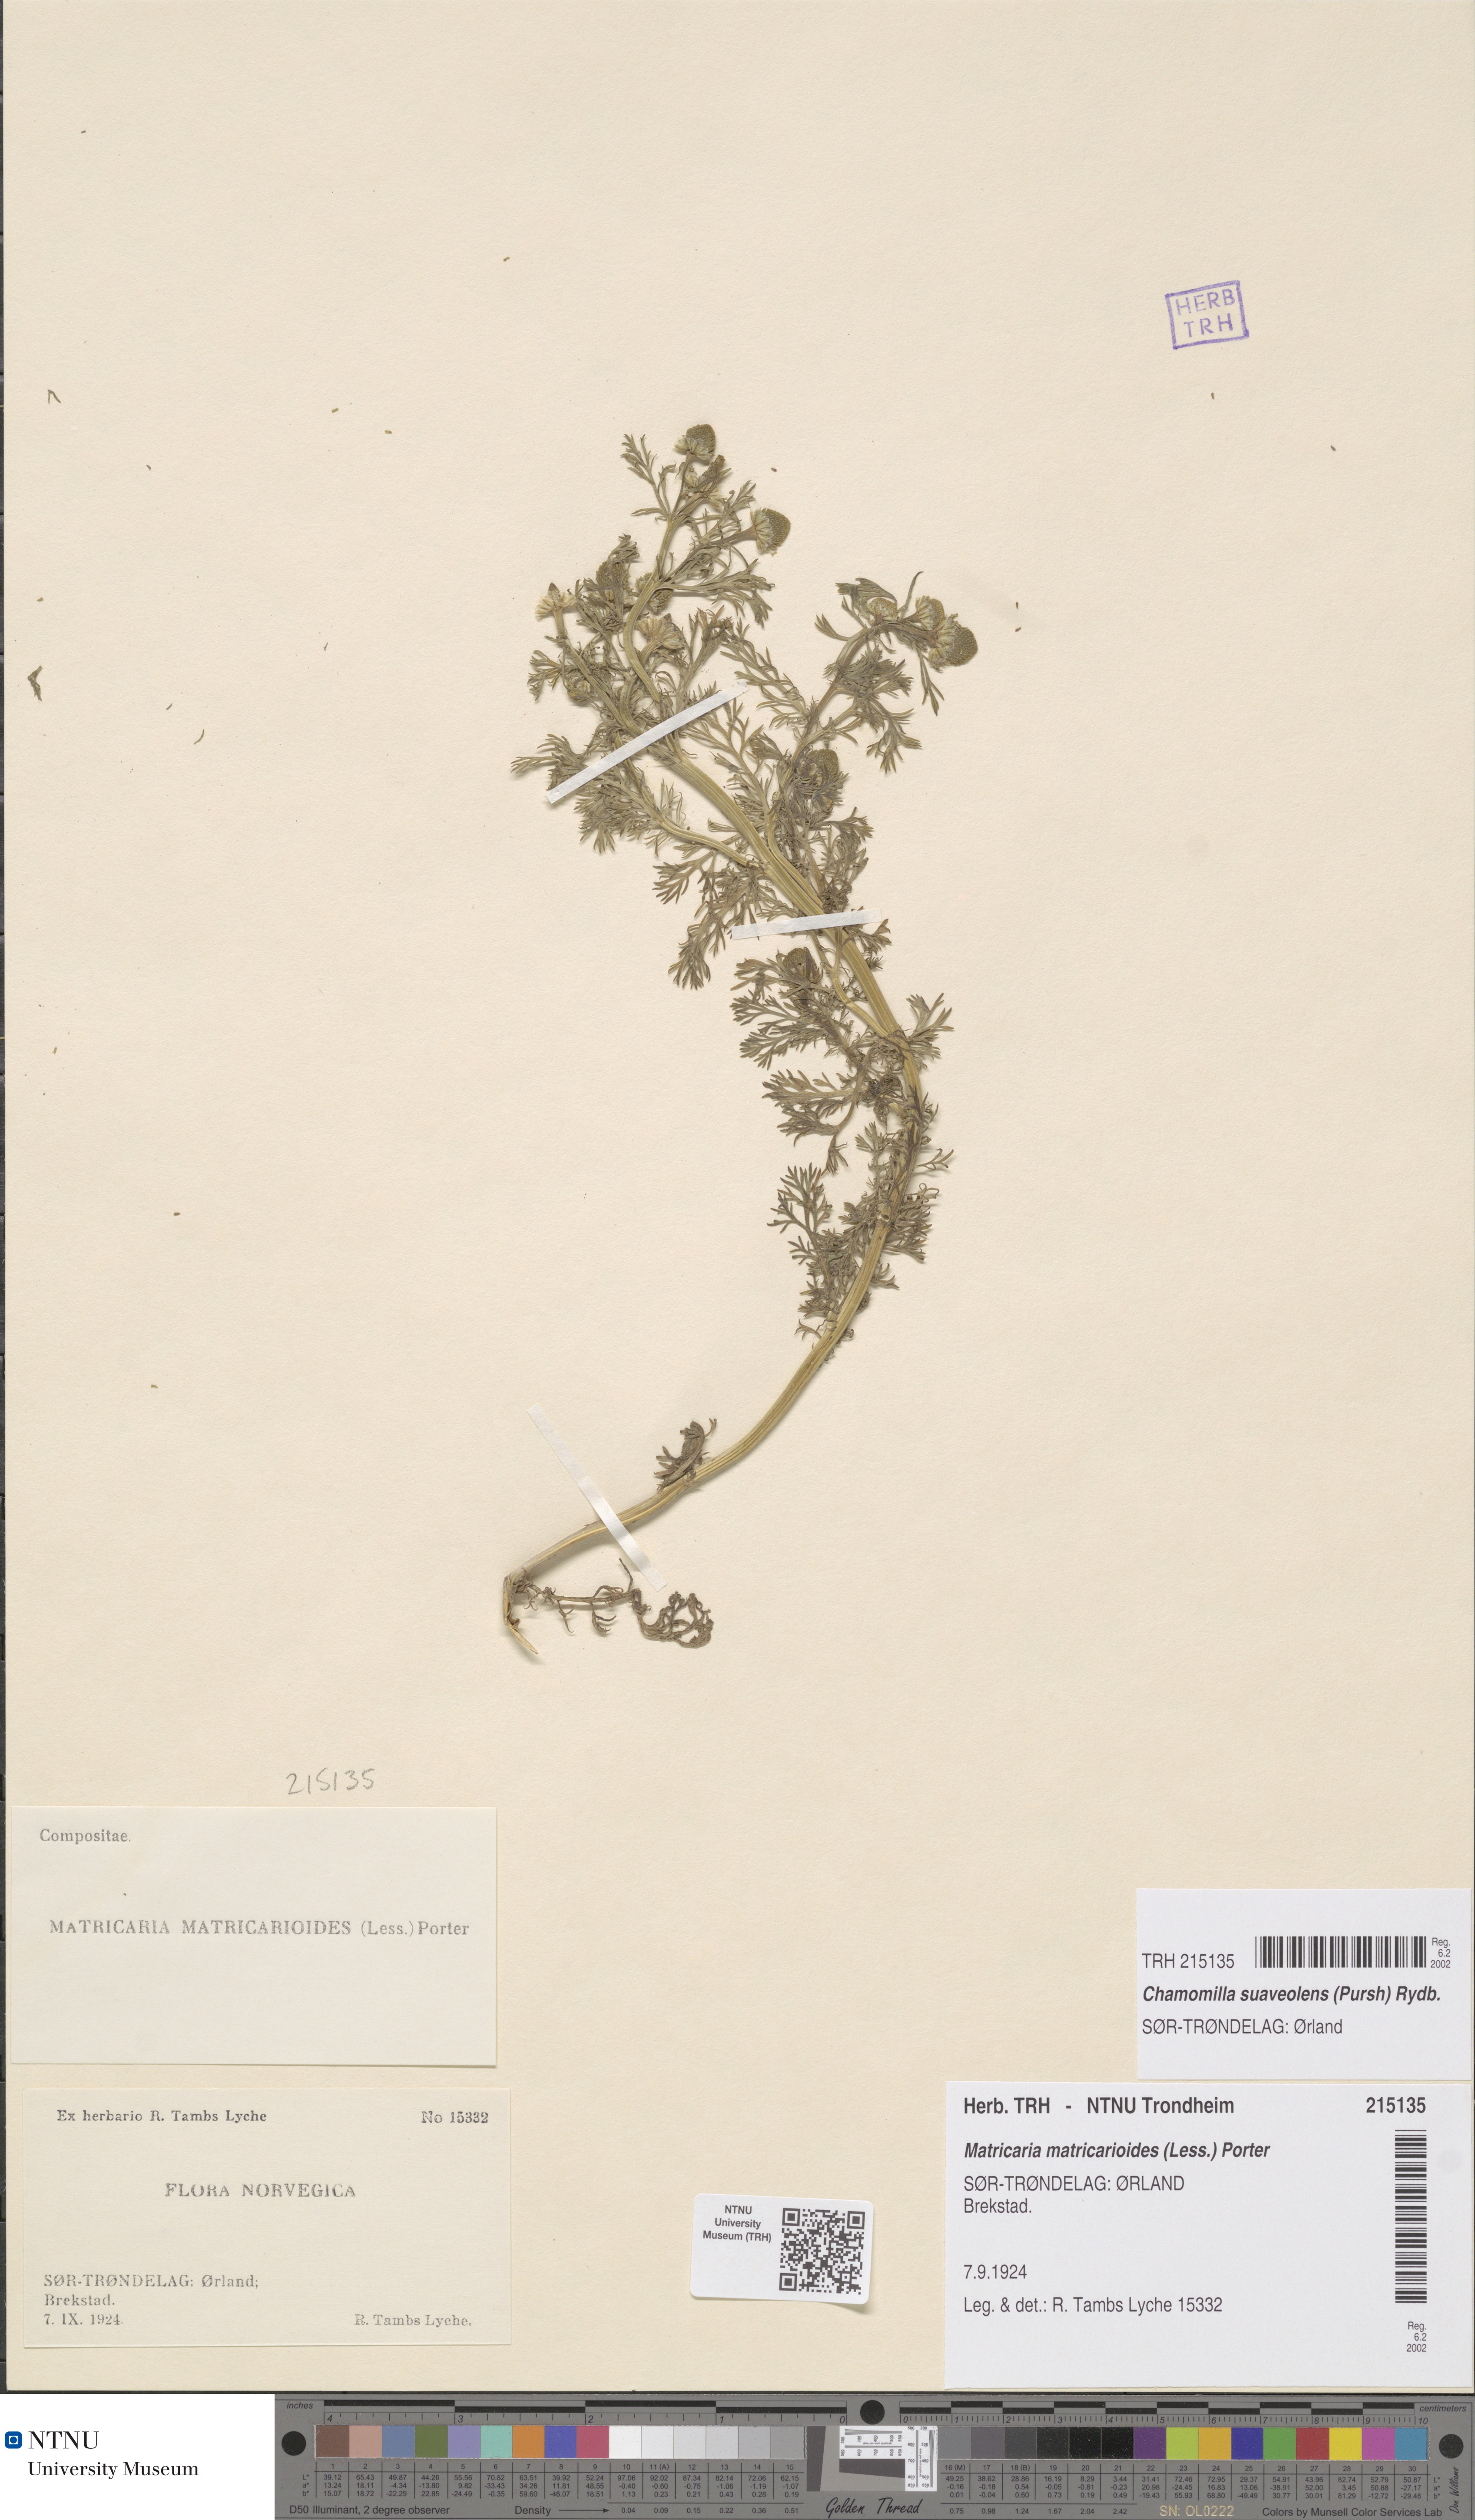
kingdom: Plantae
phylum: Tracheophyta
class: Magnoliopsida
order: Asterales
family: Asteraceae
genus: Matricaria
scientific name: Matricaria discoidea
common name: Disc mayweed
